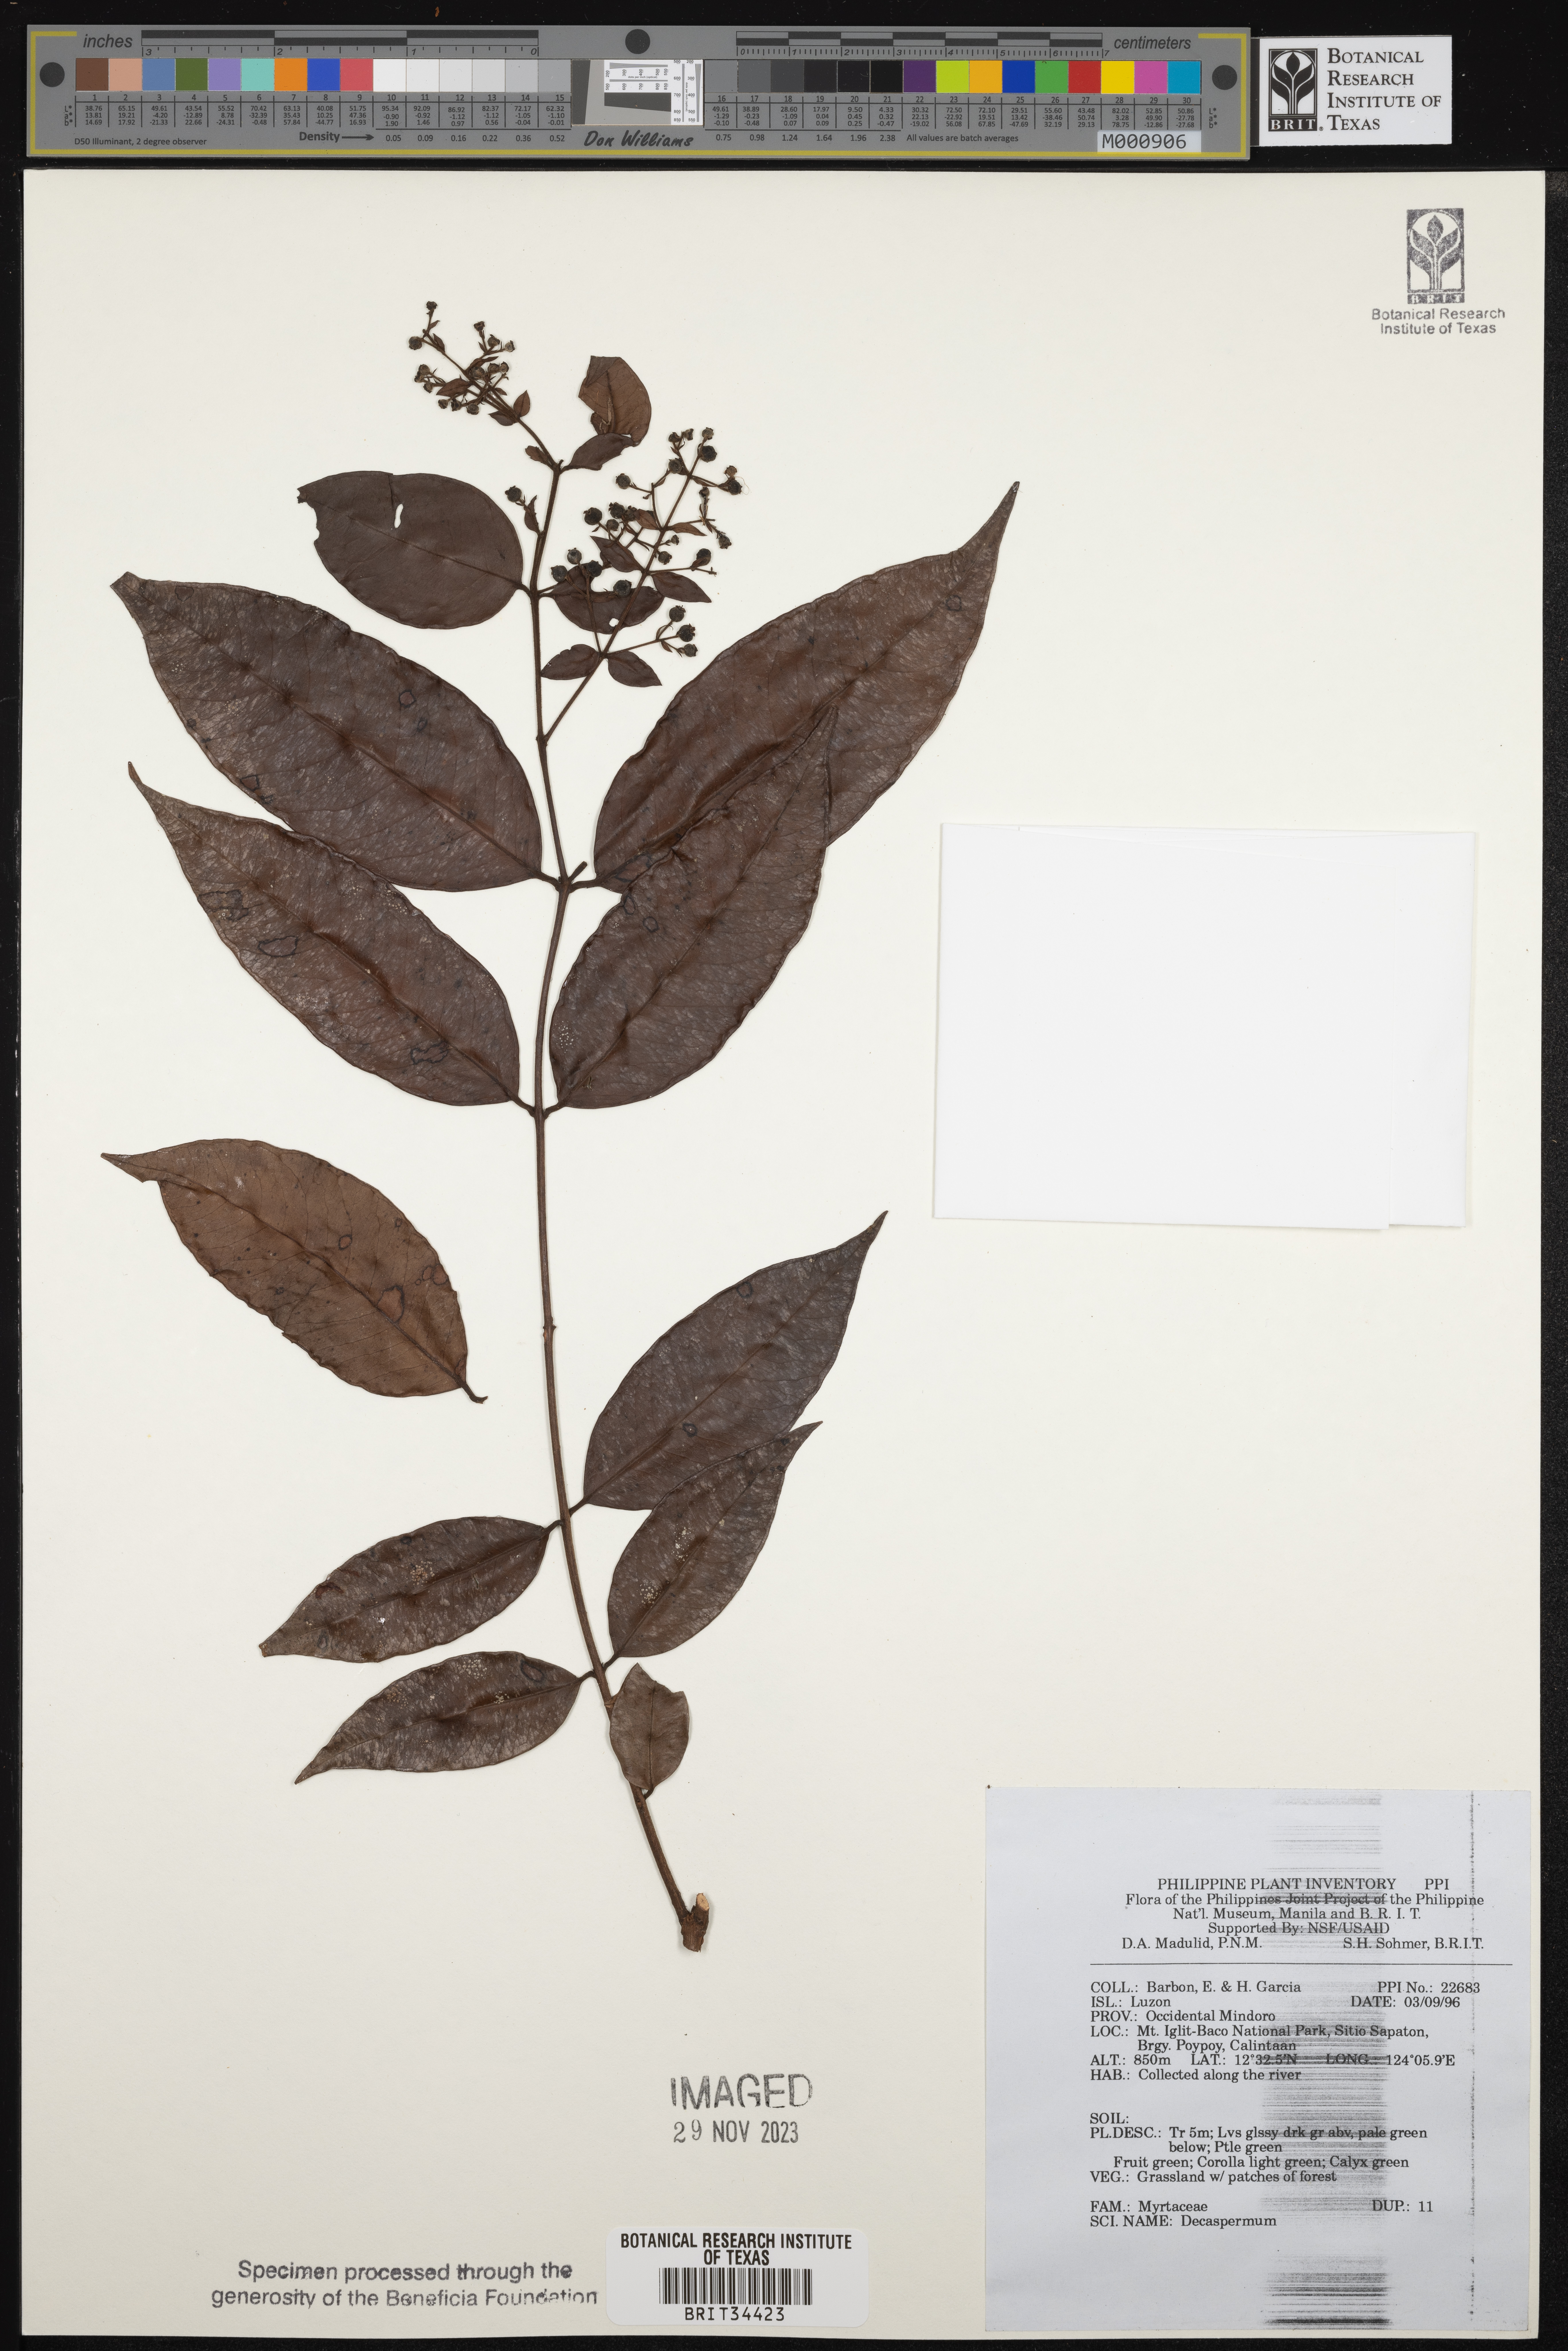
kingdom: Plantae
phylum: Tracheophyta
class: Magnoliopsida
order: Myrtales
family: Myrtaceae
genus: Decaspermum
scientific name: Decaspermum
